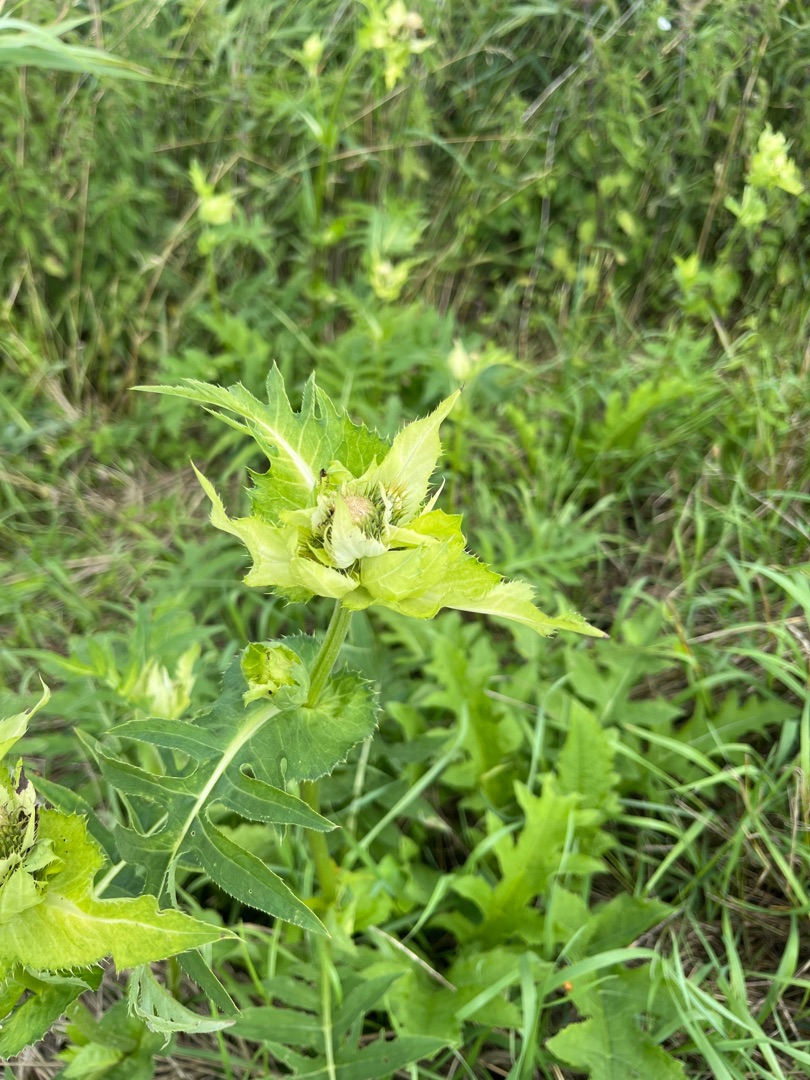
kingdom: Plantae
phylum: Tracheophyta
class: Magnoliopsida
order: Asterales
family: Asteraceae
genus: Cirsium
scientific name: Cirsium oleraceum
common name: Kål-tidsel
